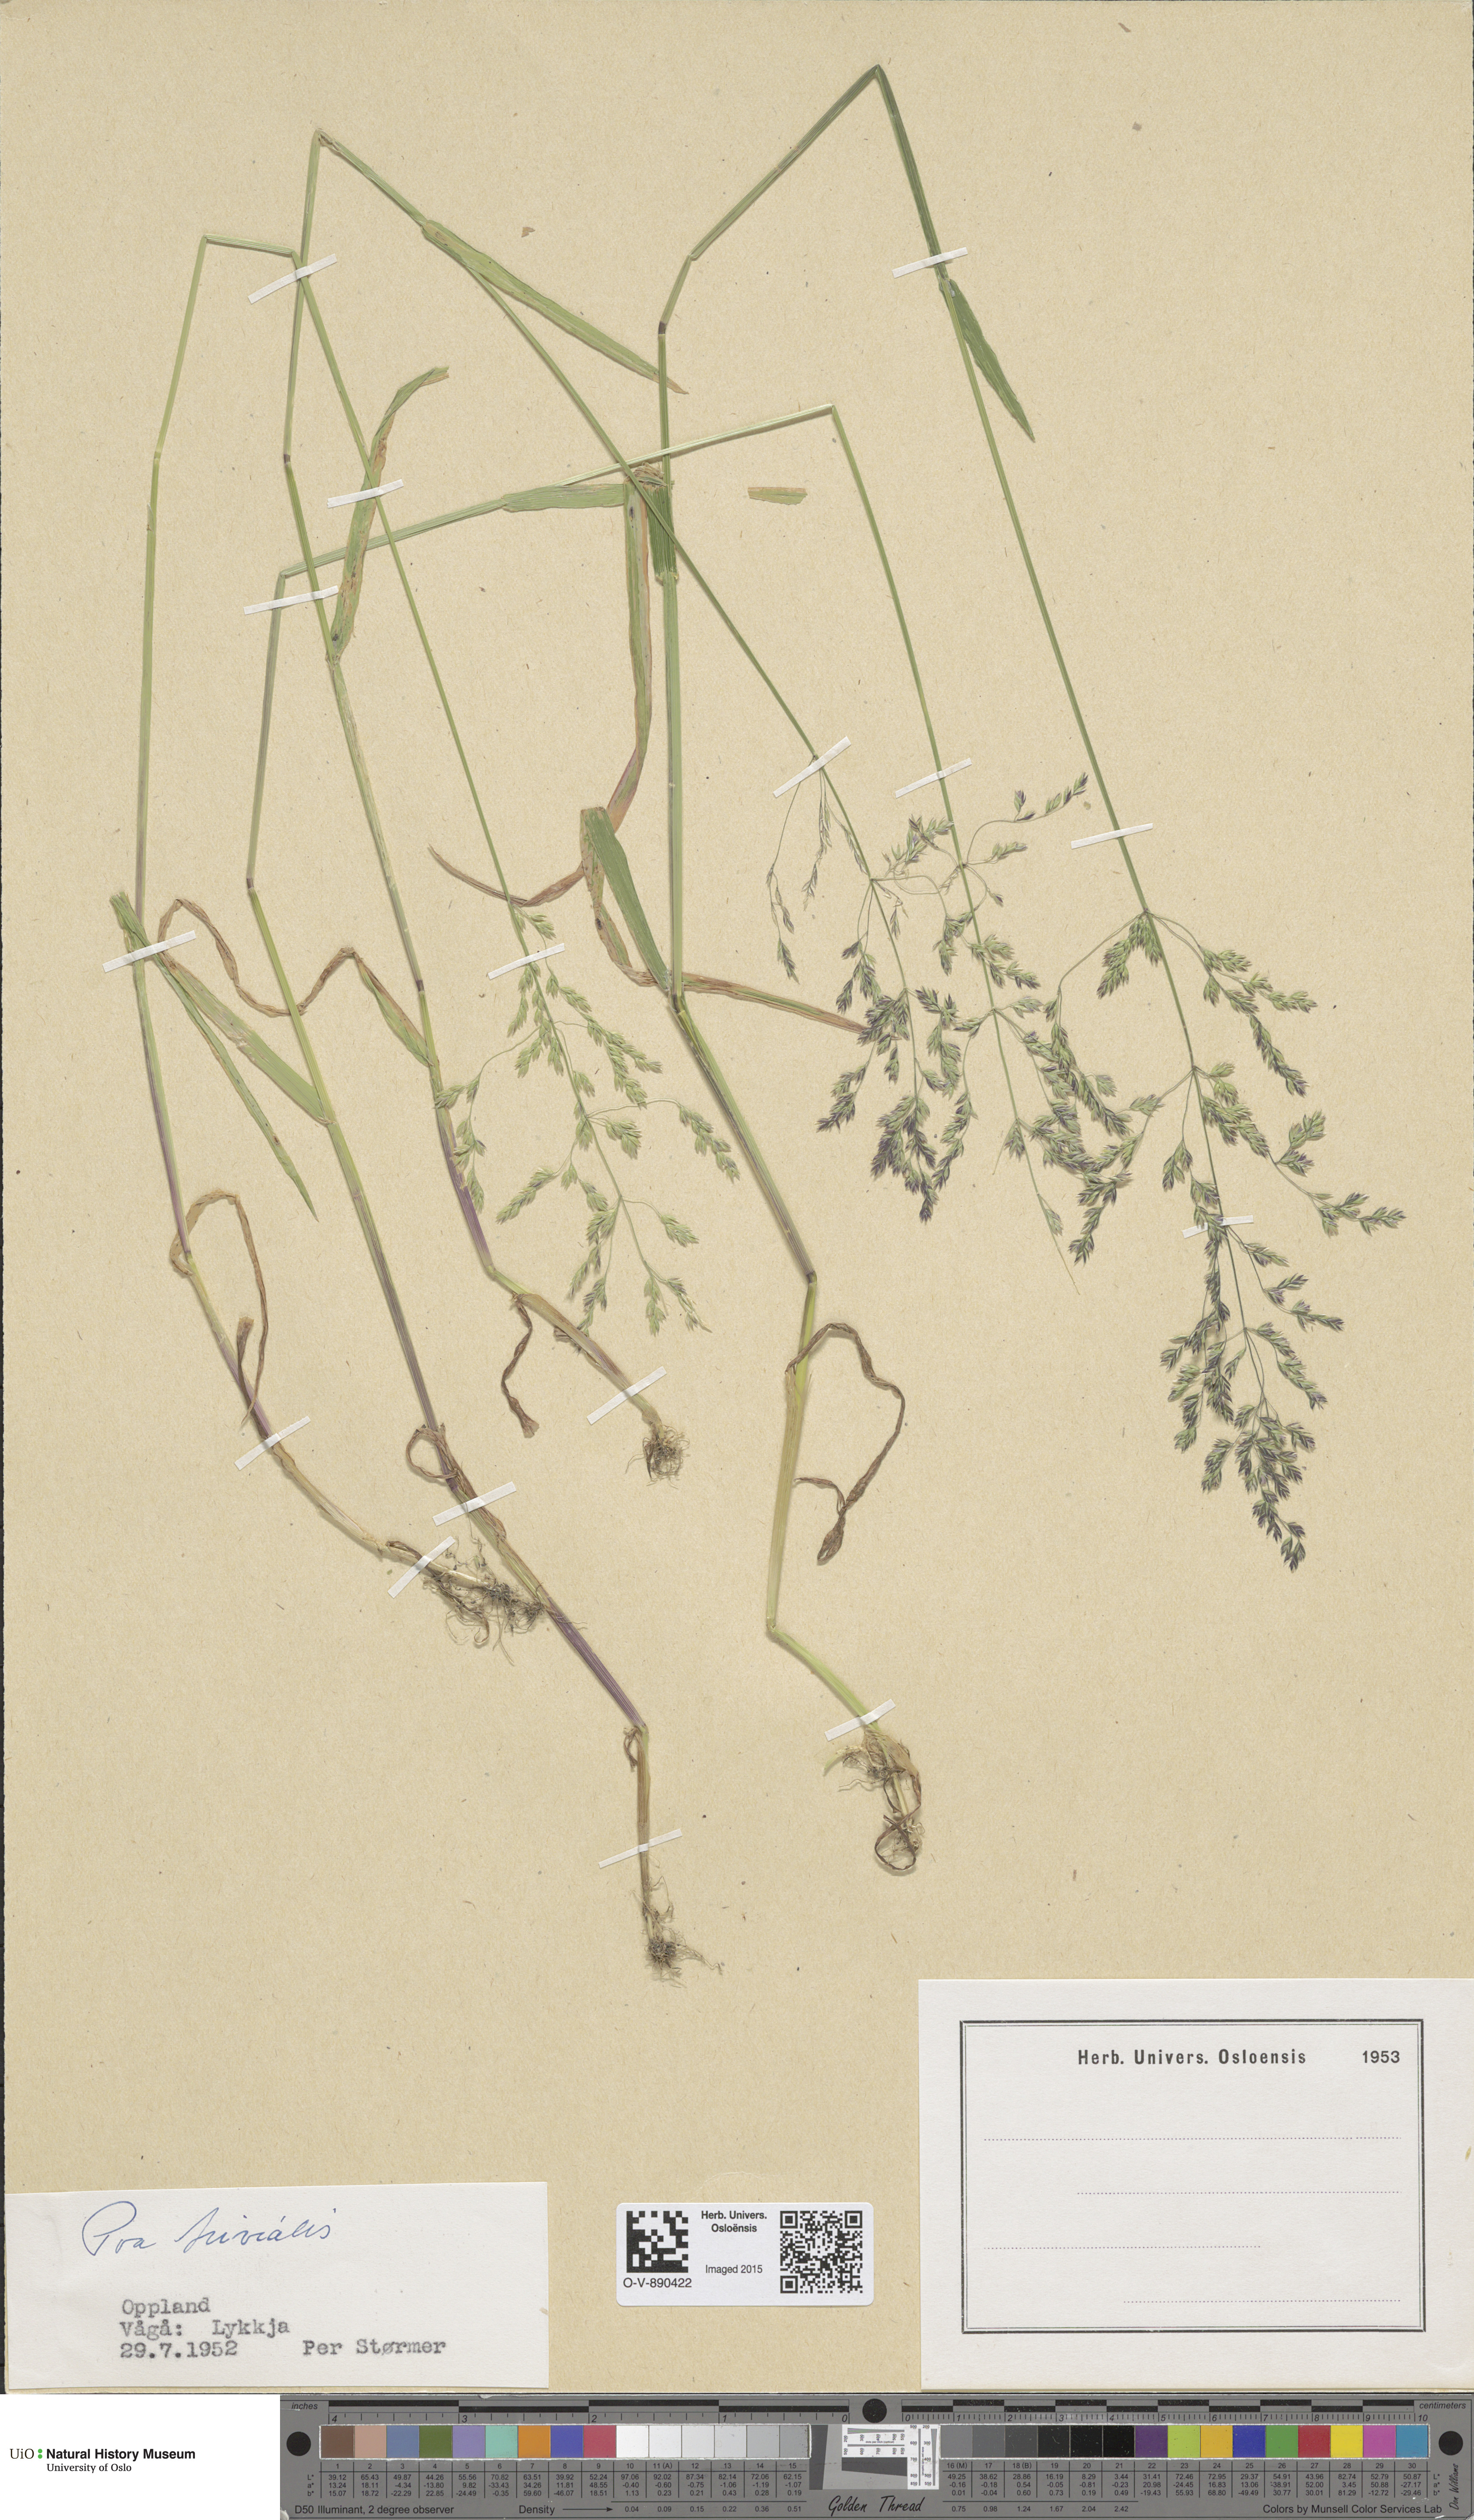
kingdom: Plantae
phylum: Tracheophyta
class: Liliopsida
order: Poales
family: Poaceae
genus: Poa
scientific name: Poa trivialis
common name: Rough bluegrass
